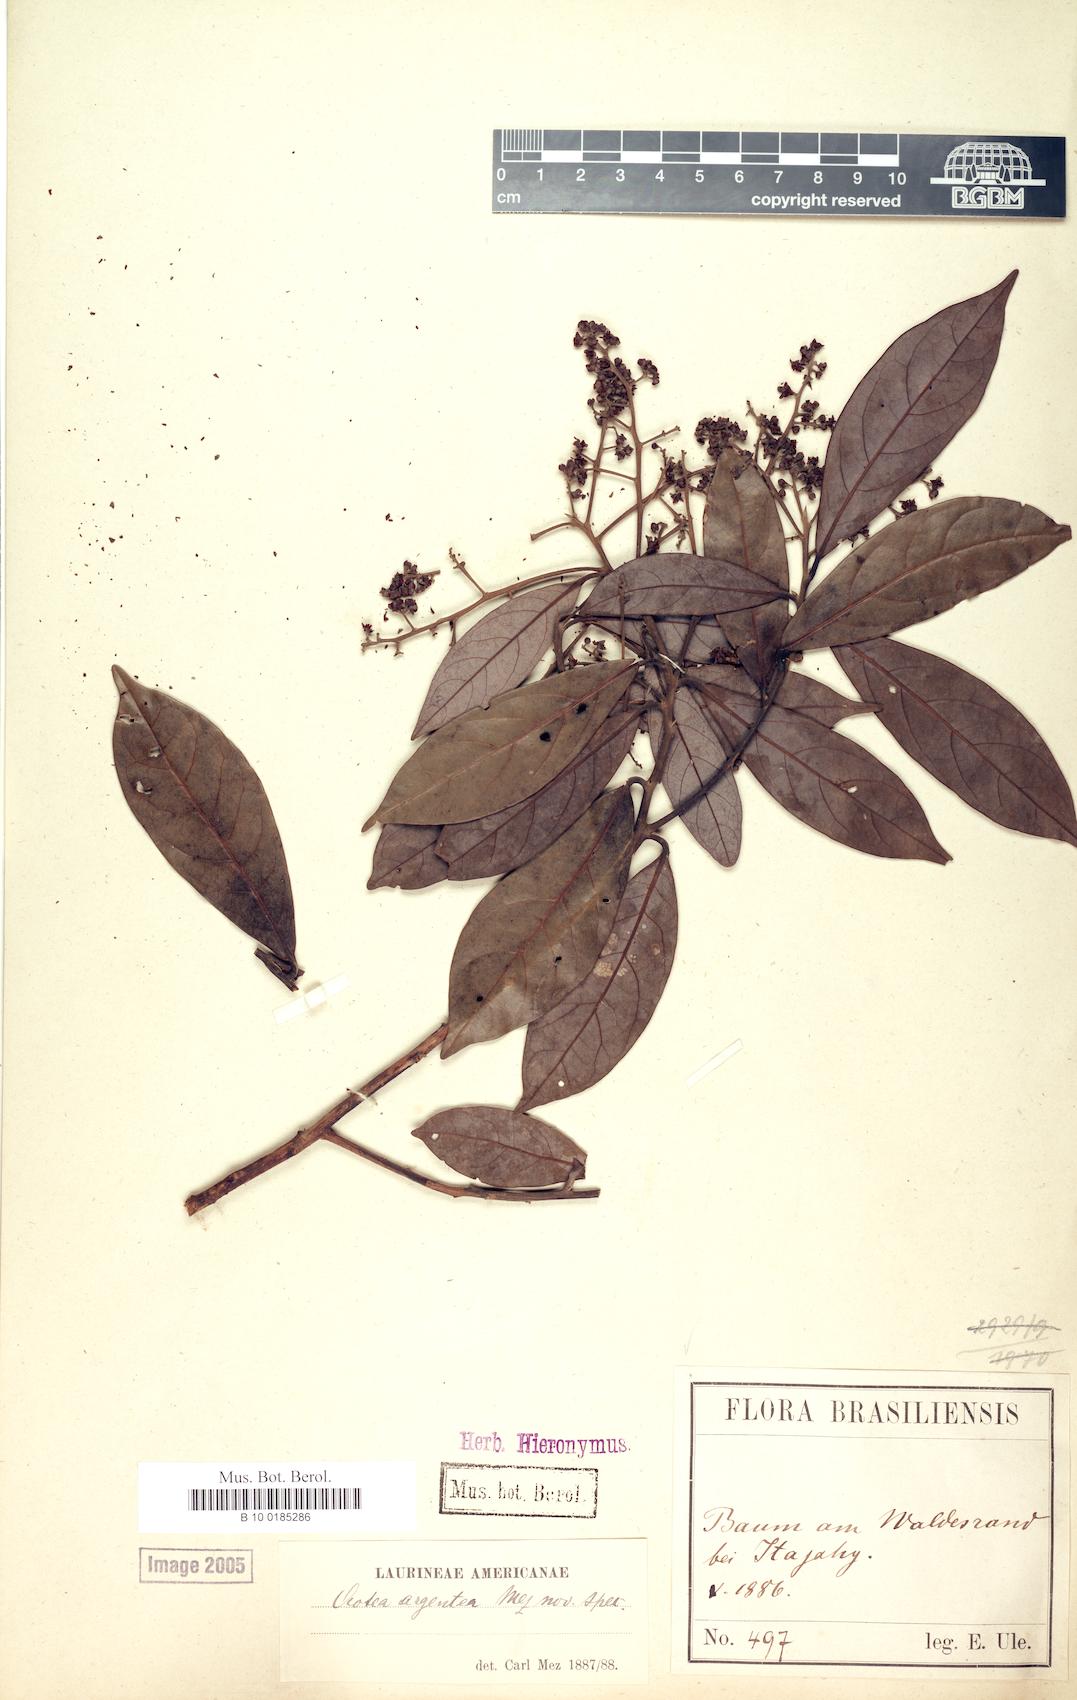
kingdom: Plantae
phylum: Tracheophyta
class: Magnoliopsida
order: Laurales
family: Lauraceae
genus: Ocotea
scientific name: Ocotea argentea
